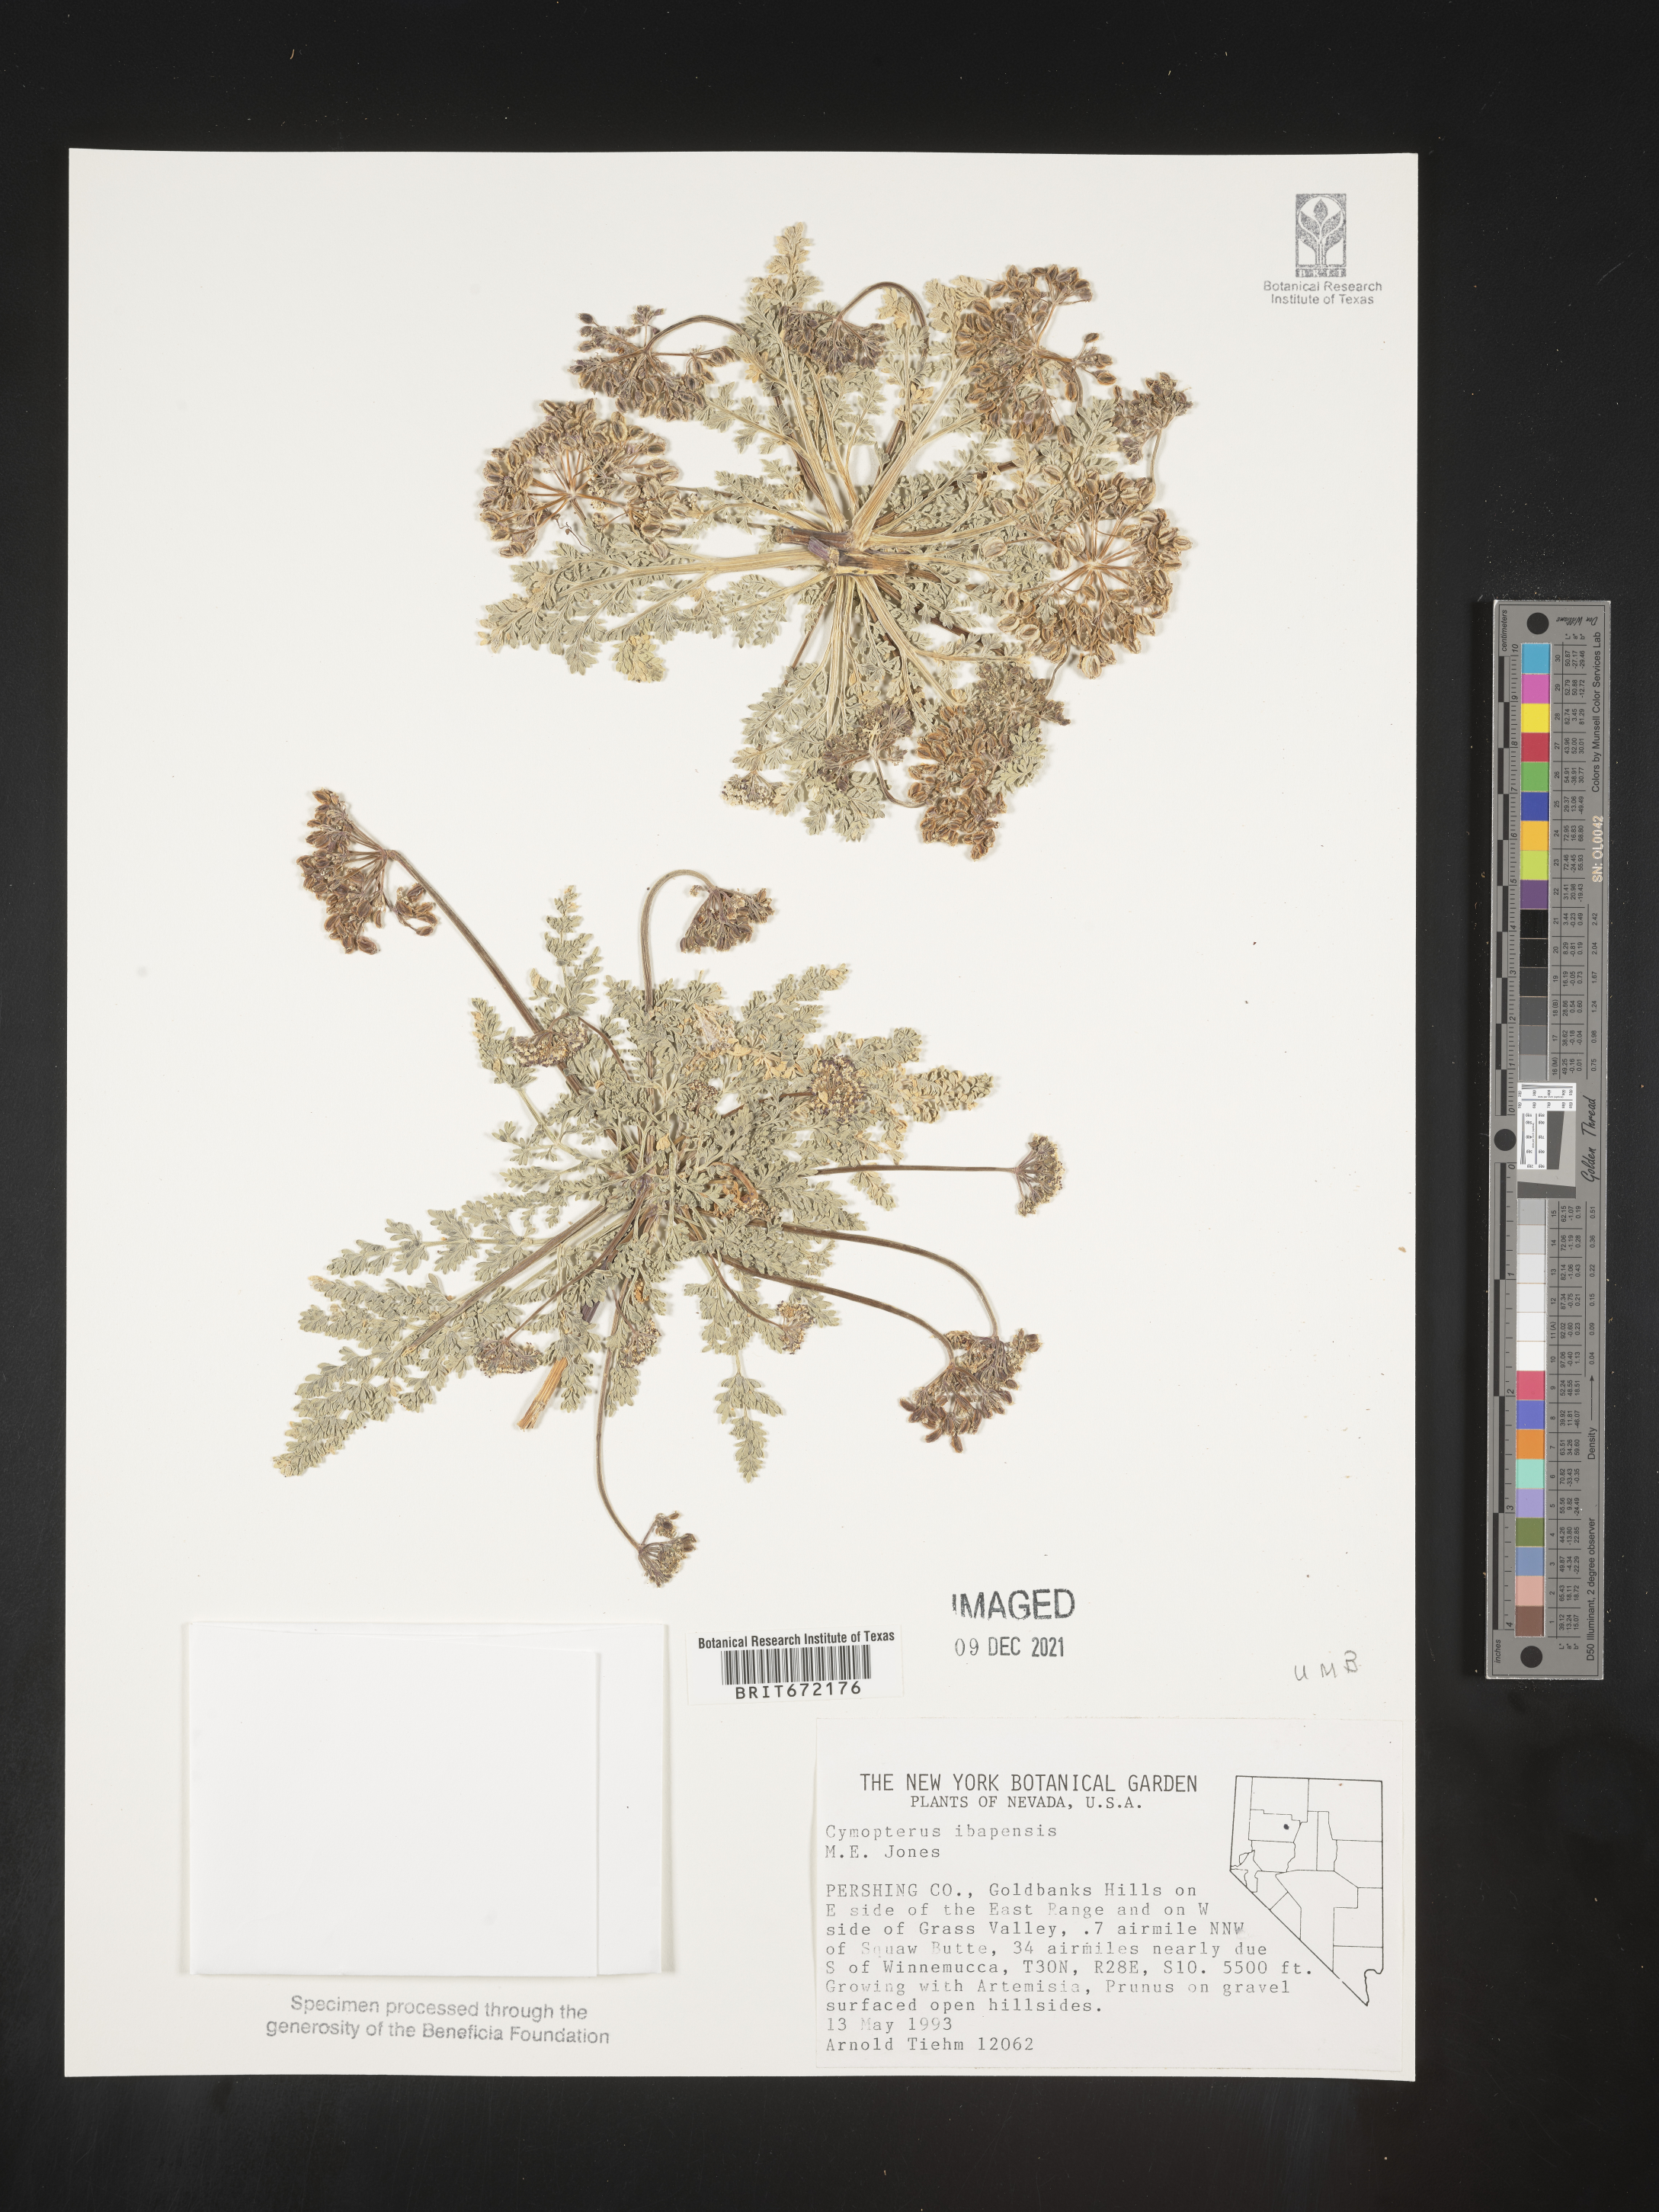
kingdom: Plantae
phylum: Tracheophyta
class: Magnoliopsida
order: Apiales
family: Apiaceae
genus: Aulospermum
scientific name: Aulospermum ibapense
